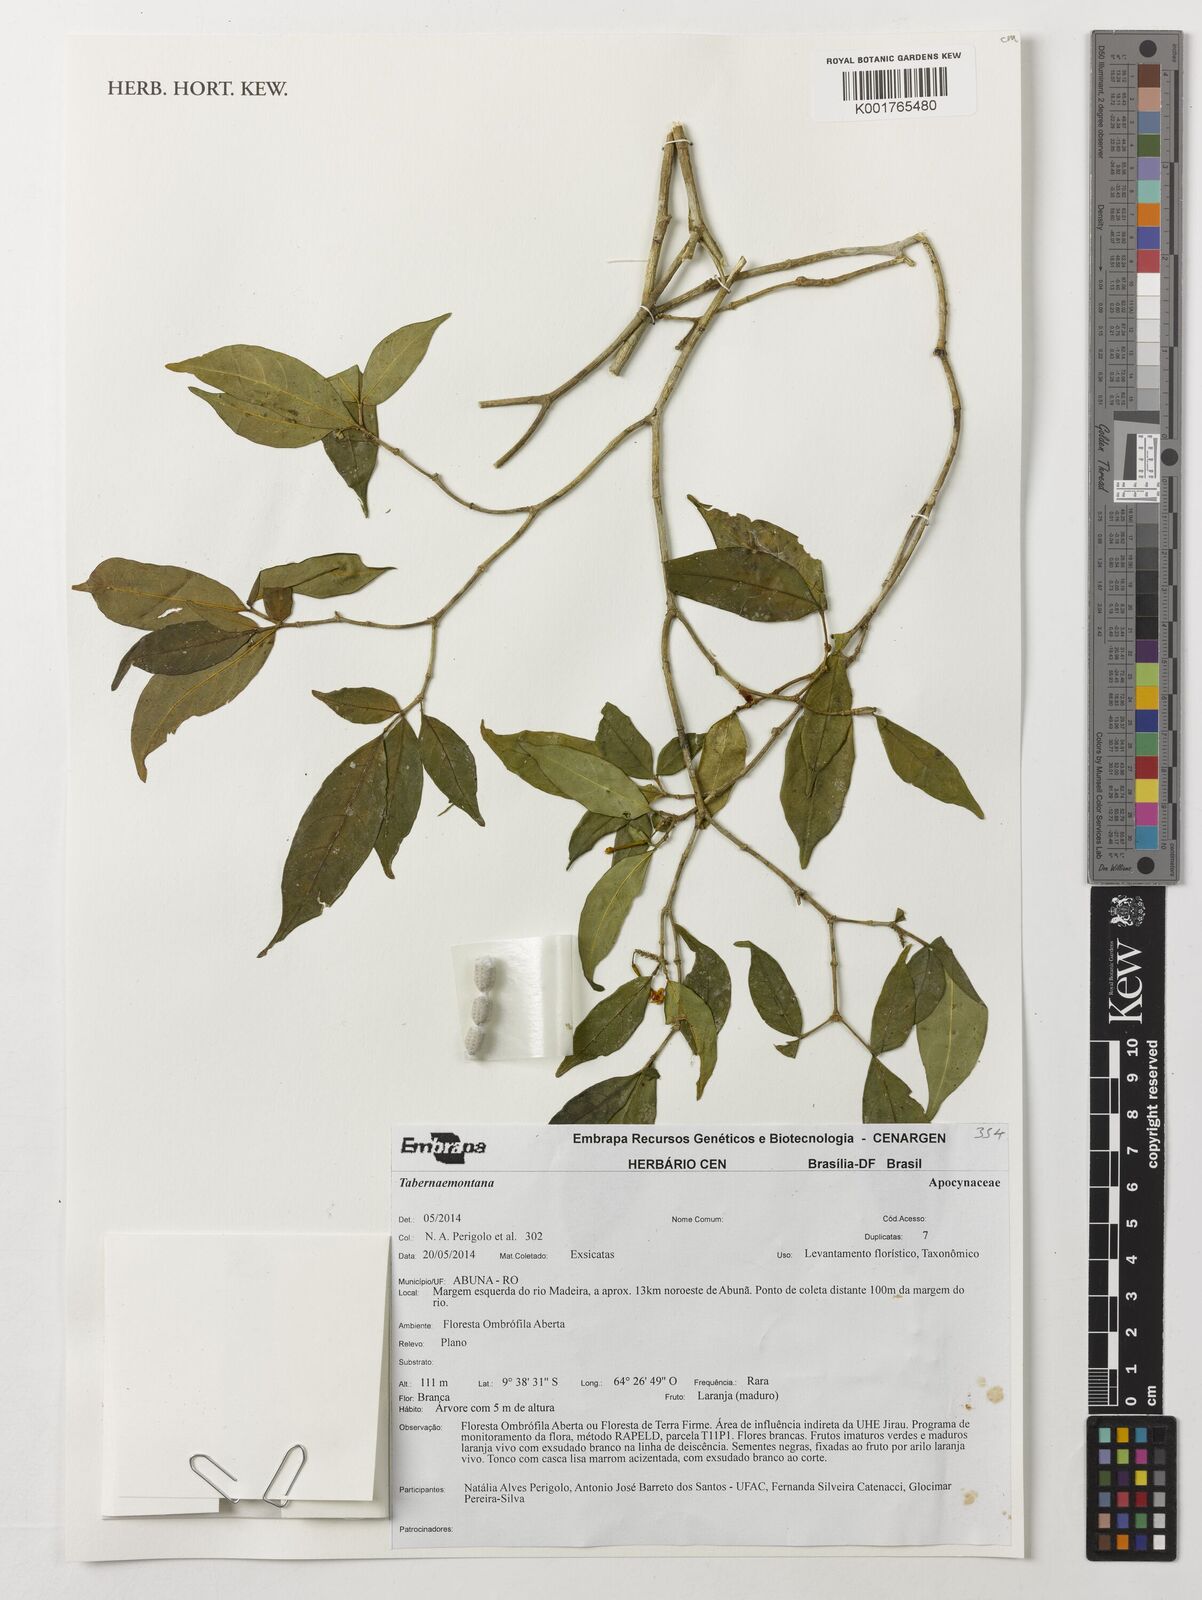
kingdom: Plantae
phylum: Tracheophyta
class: Magnoliopsida
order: Gentianales
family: Apocynaceae
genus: Tabernaemontana
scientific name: Tabernaemontana
